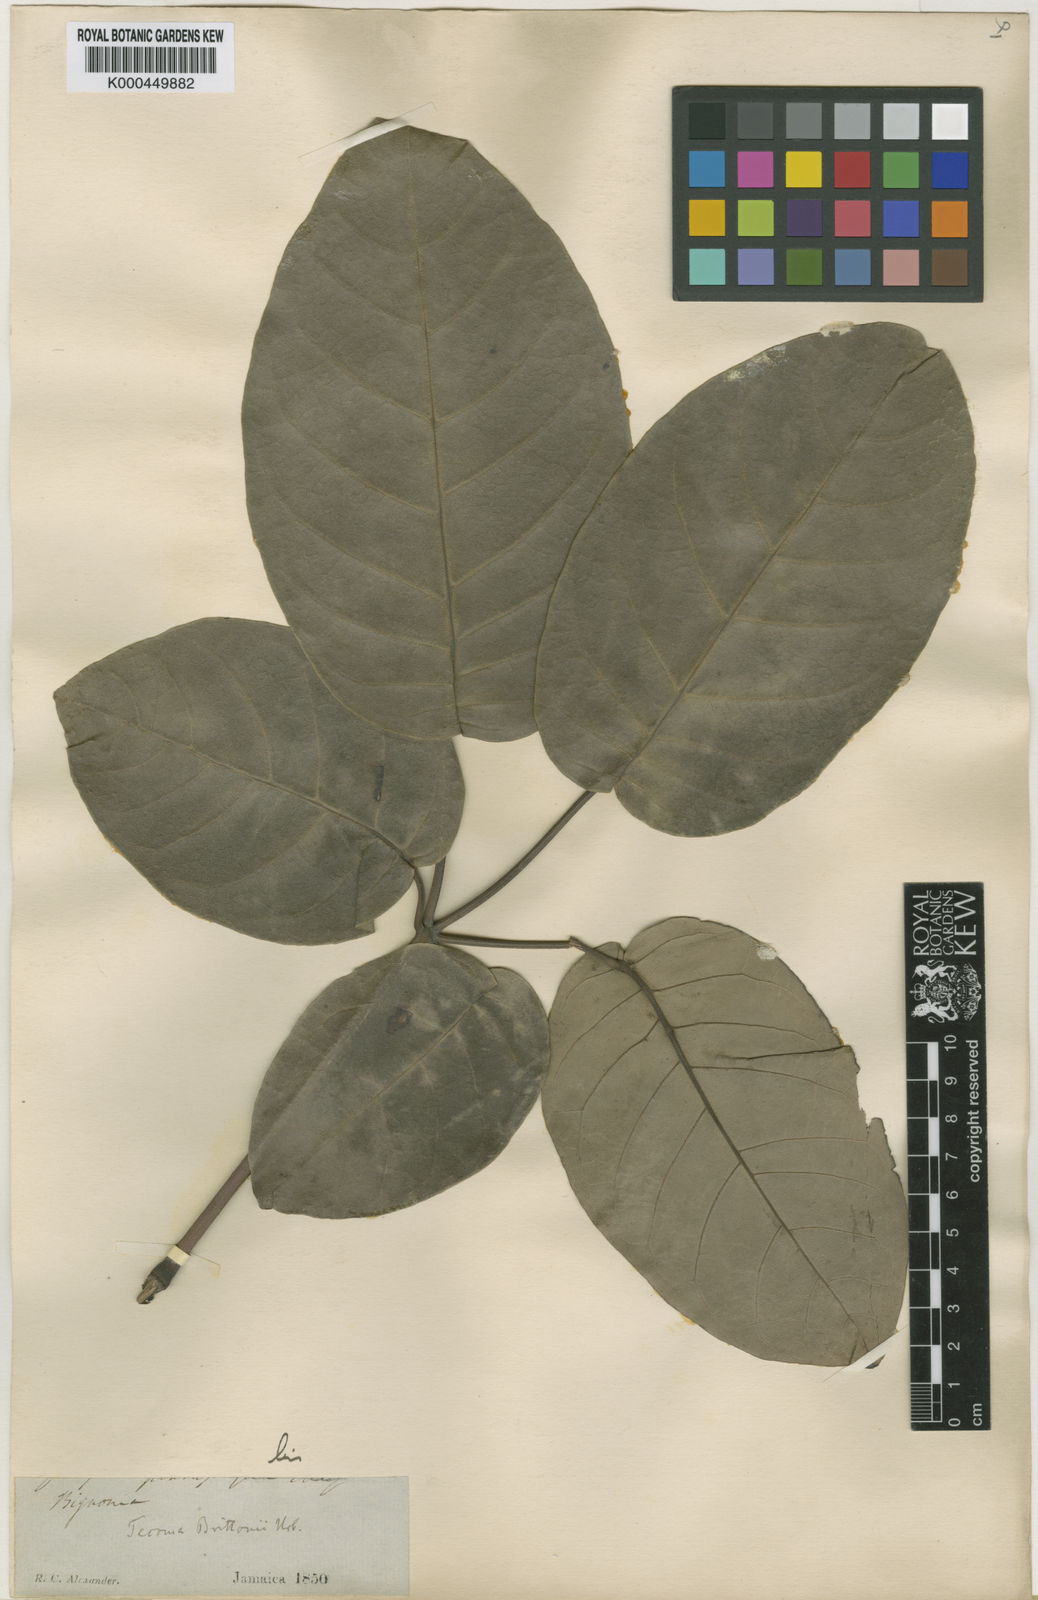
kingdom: Plantae
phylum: Tracheophyta
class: Magnoliopsida
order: Lamiales
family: Bignoniaceae
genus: Tabebuia
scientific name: Tabebuia rosea
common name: Pink poui
